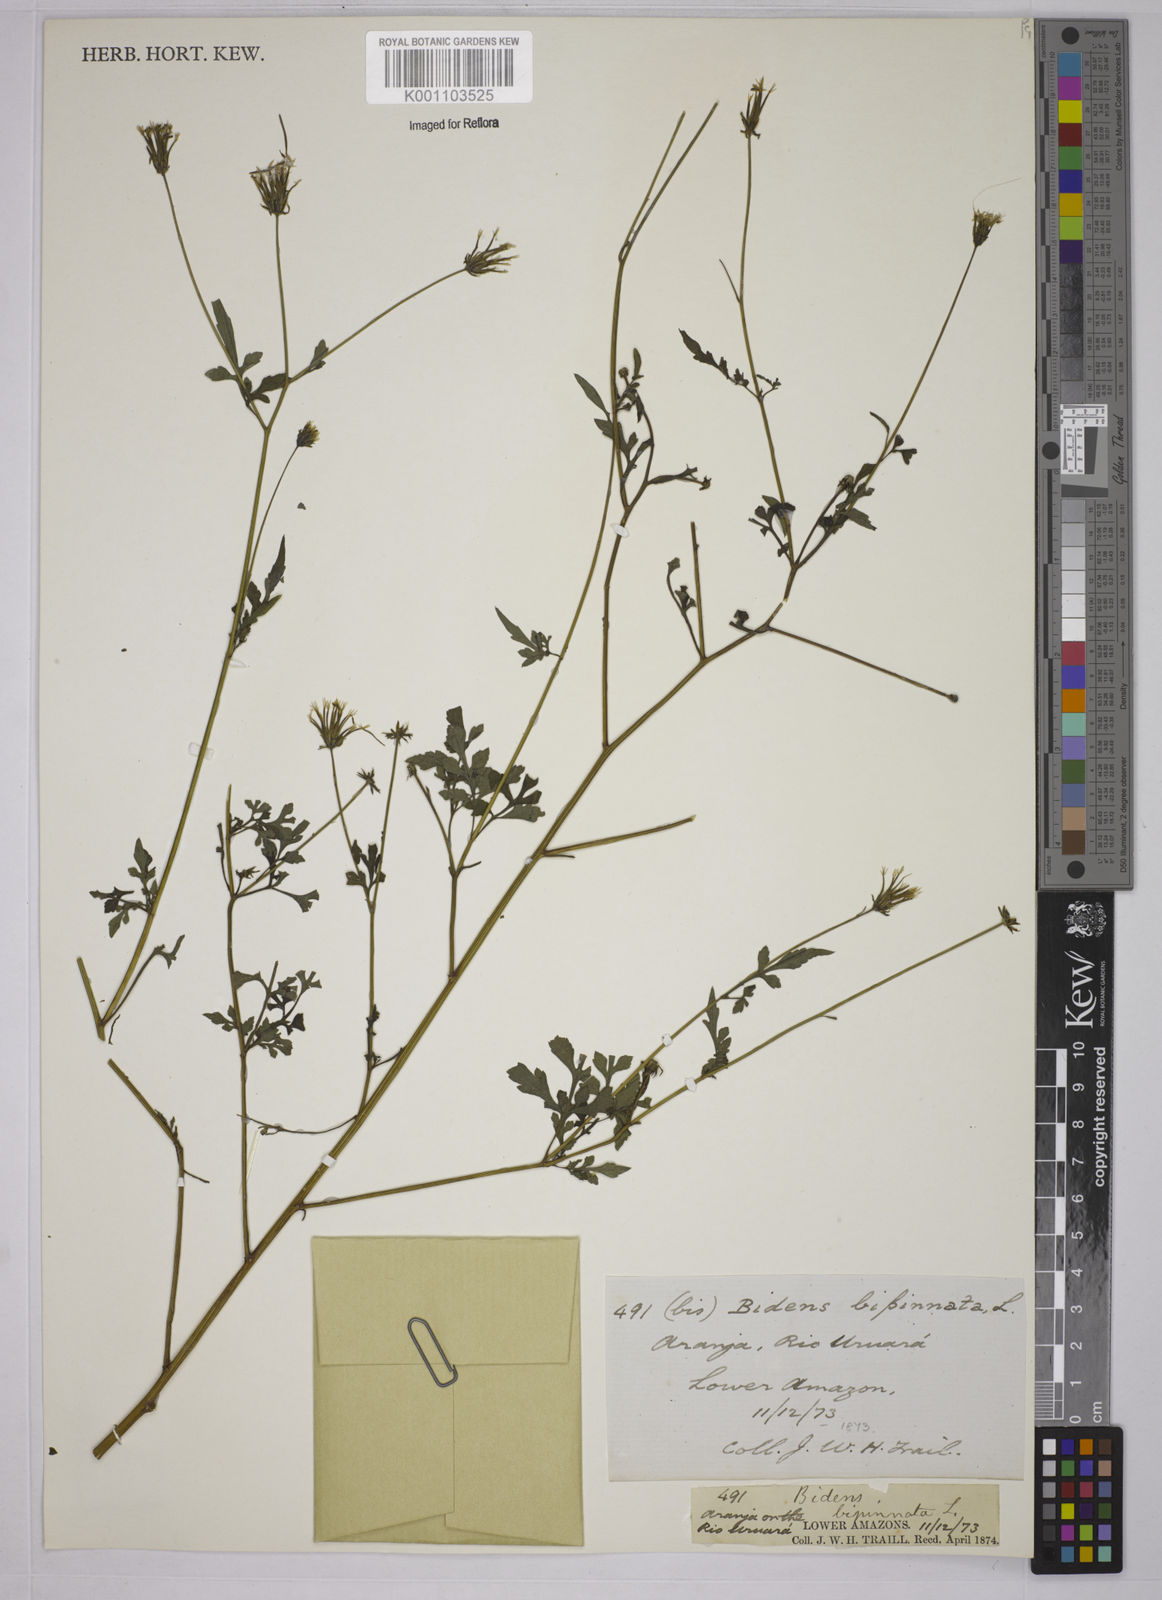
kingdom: Plantae
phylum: Tracheophyta
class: Magnoliopsida
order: Asterales
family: Asteraceae
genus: Bidens
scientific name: Bidens bipinnata
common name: Spanish-needles
